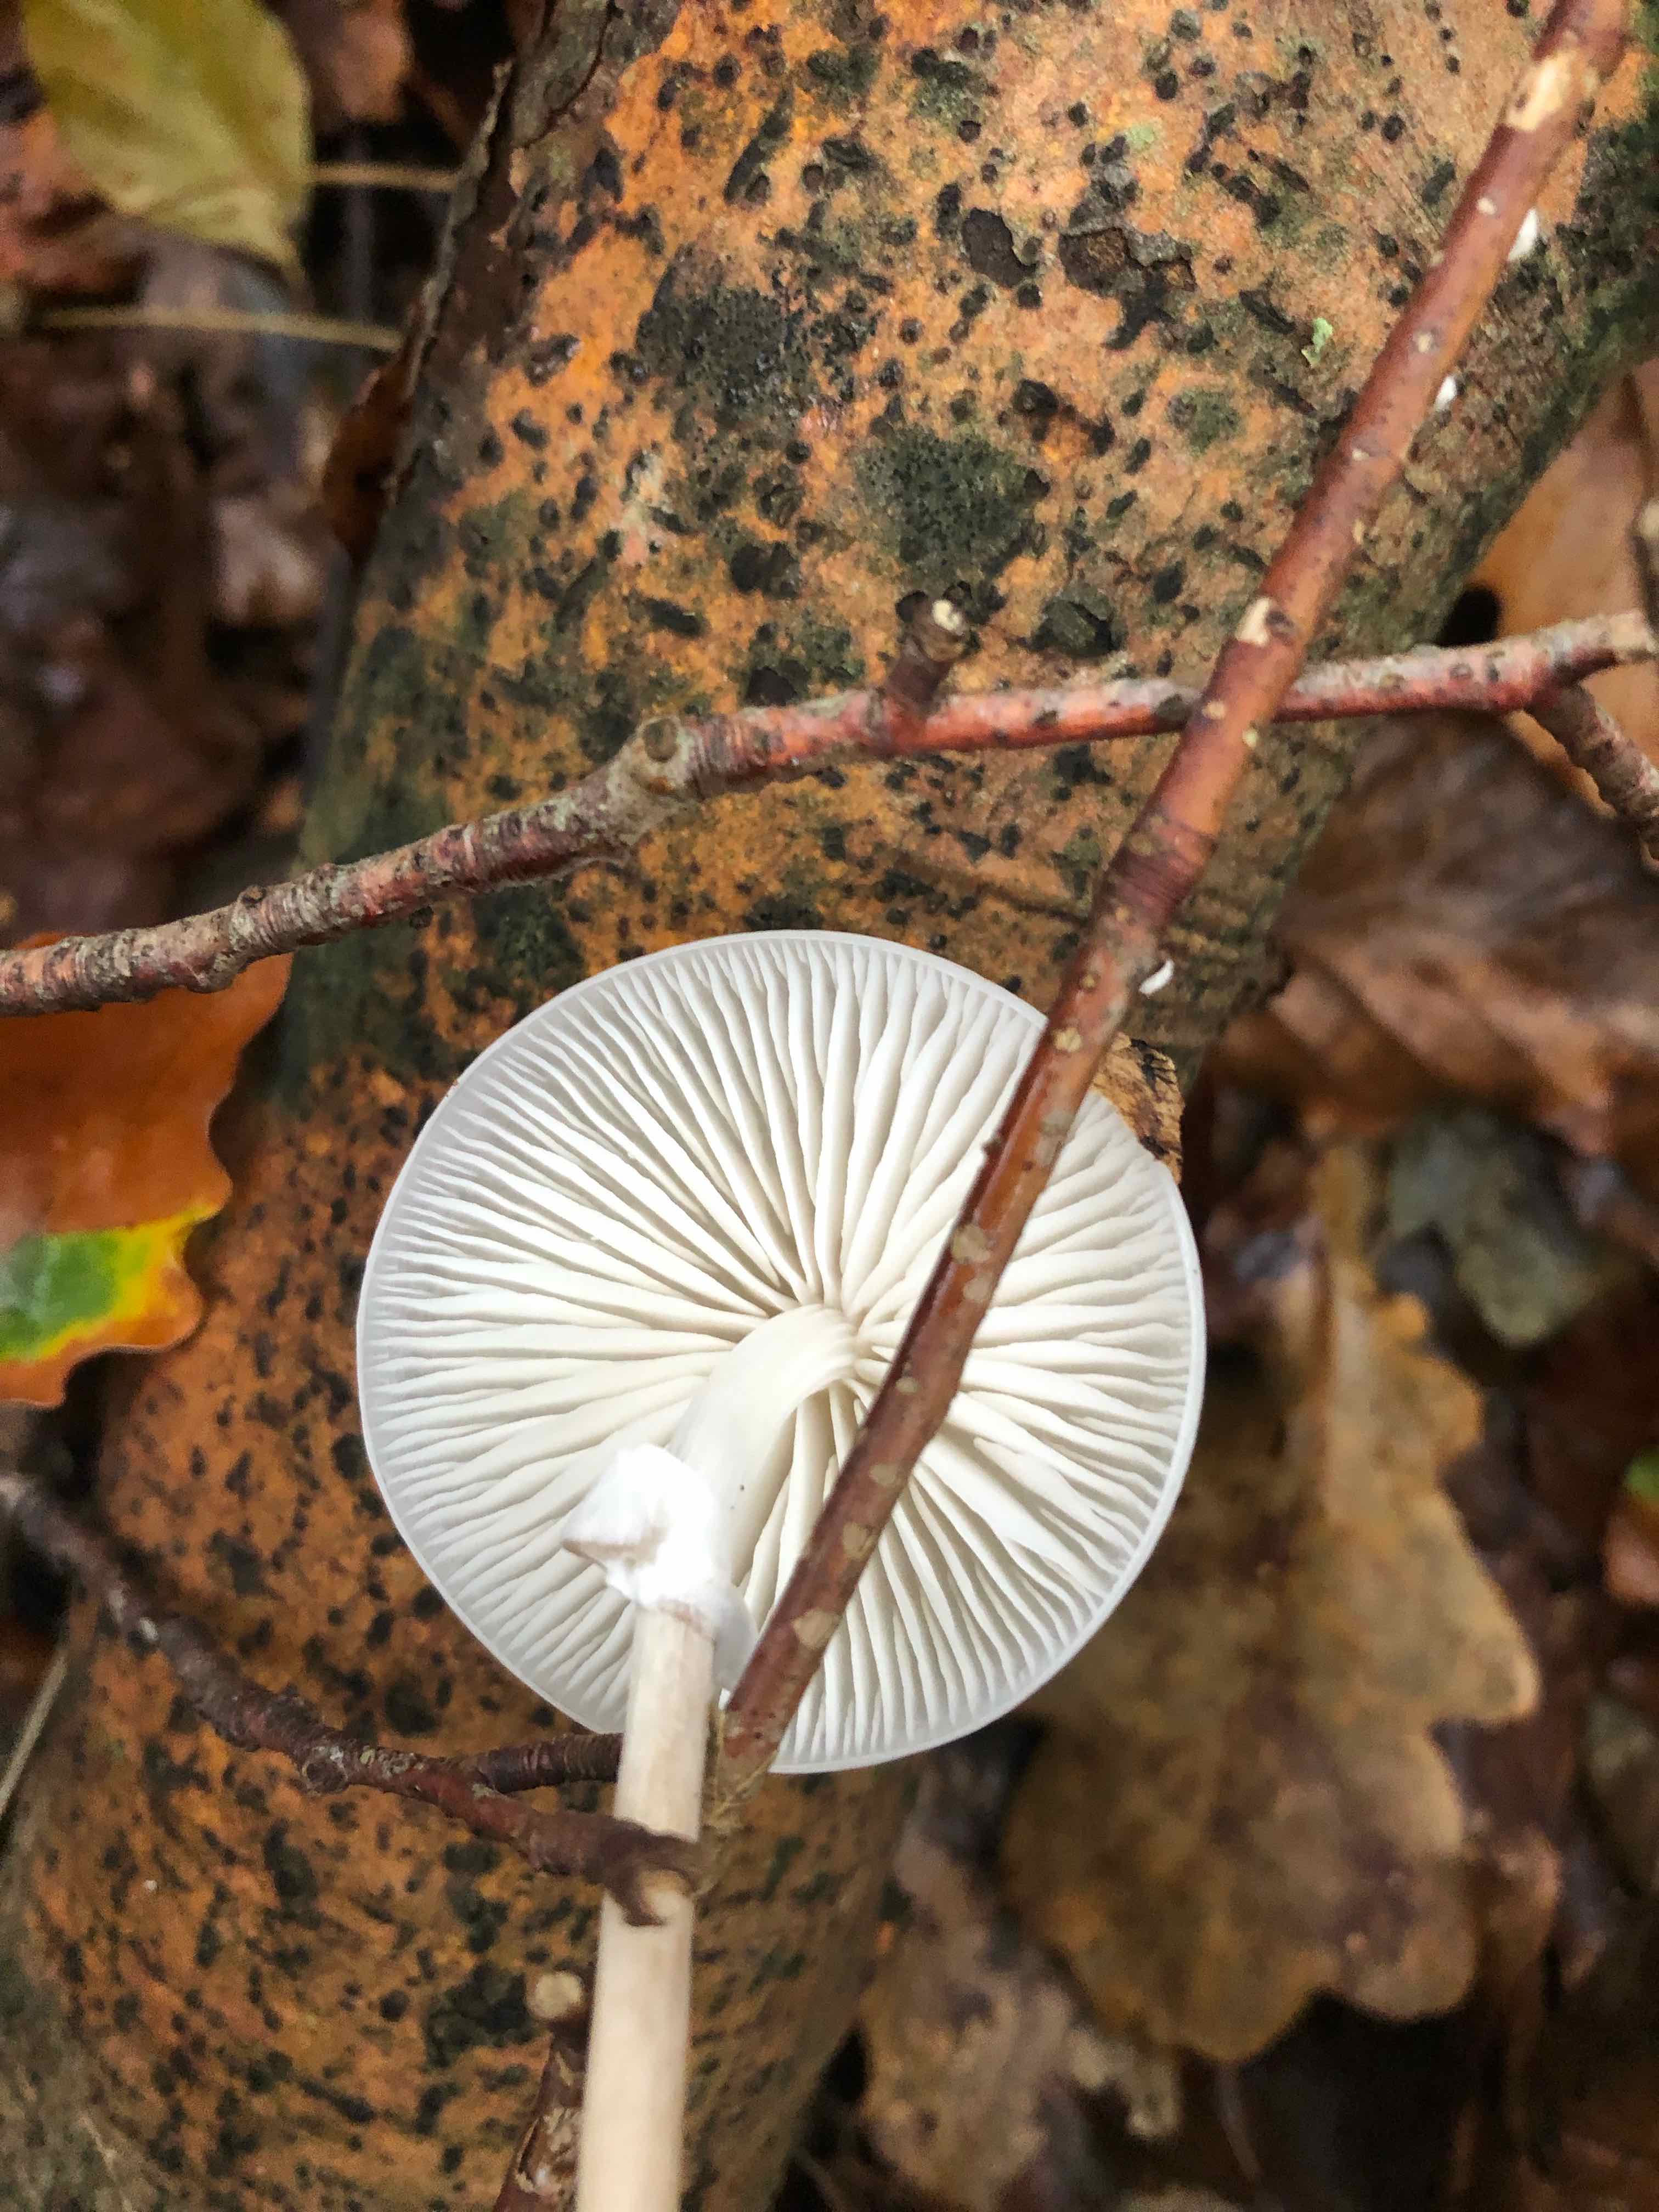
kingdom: Fungi
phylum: Basidiomycota
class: Agaricomycetes
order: Agaricales
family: Physalacriaceae
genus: Mucidula
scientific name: Mucidula mucida
